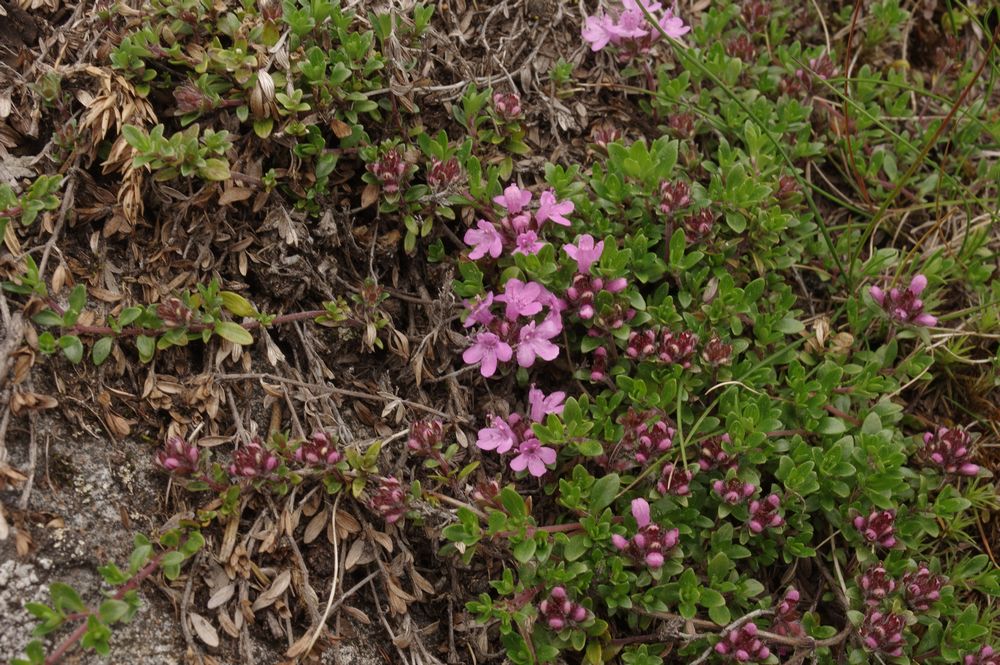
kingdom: Plantae
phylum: Tracheophyta
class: Magnoliopsida
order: Lamiales
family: Lamiaceae
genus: Thymus
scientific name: Thymus serpyllum
